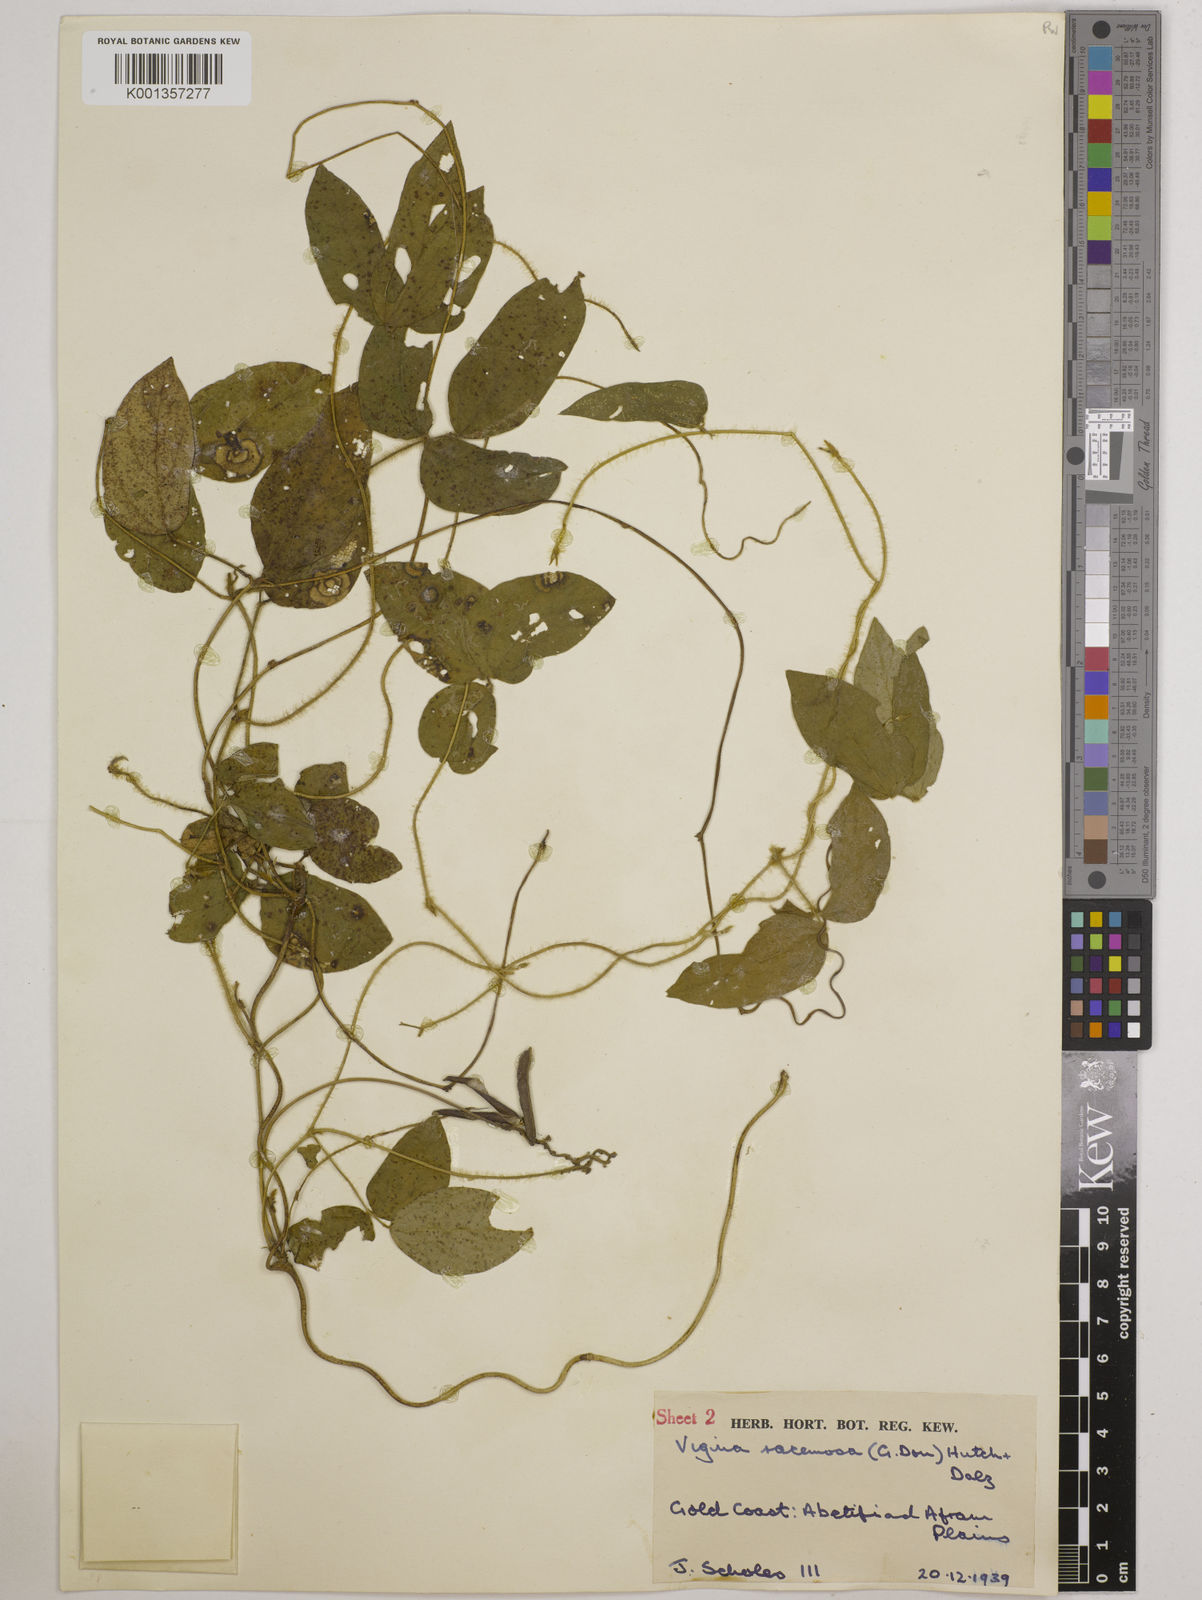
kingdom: Plantae
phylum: Tracheophyta
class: Magnoliopsida
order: Fabales
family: Fabaceae
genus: Vigna
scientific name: Vigna racemosa
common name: Beans not eaten
